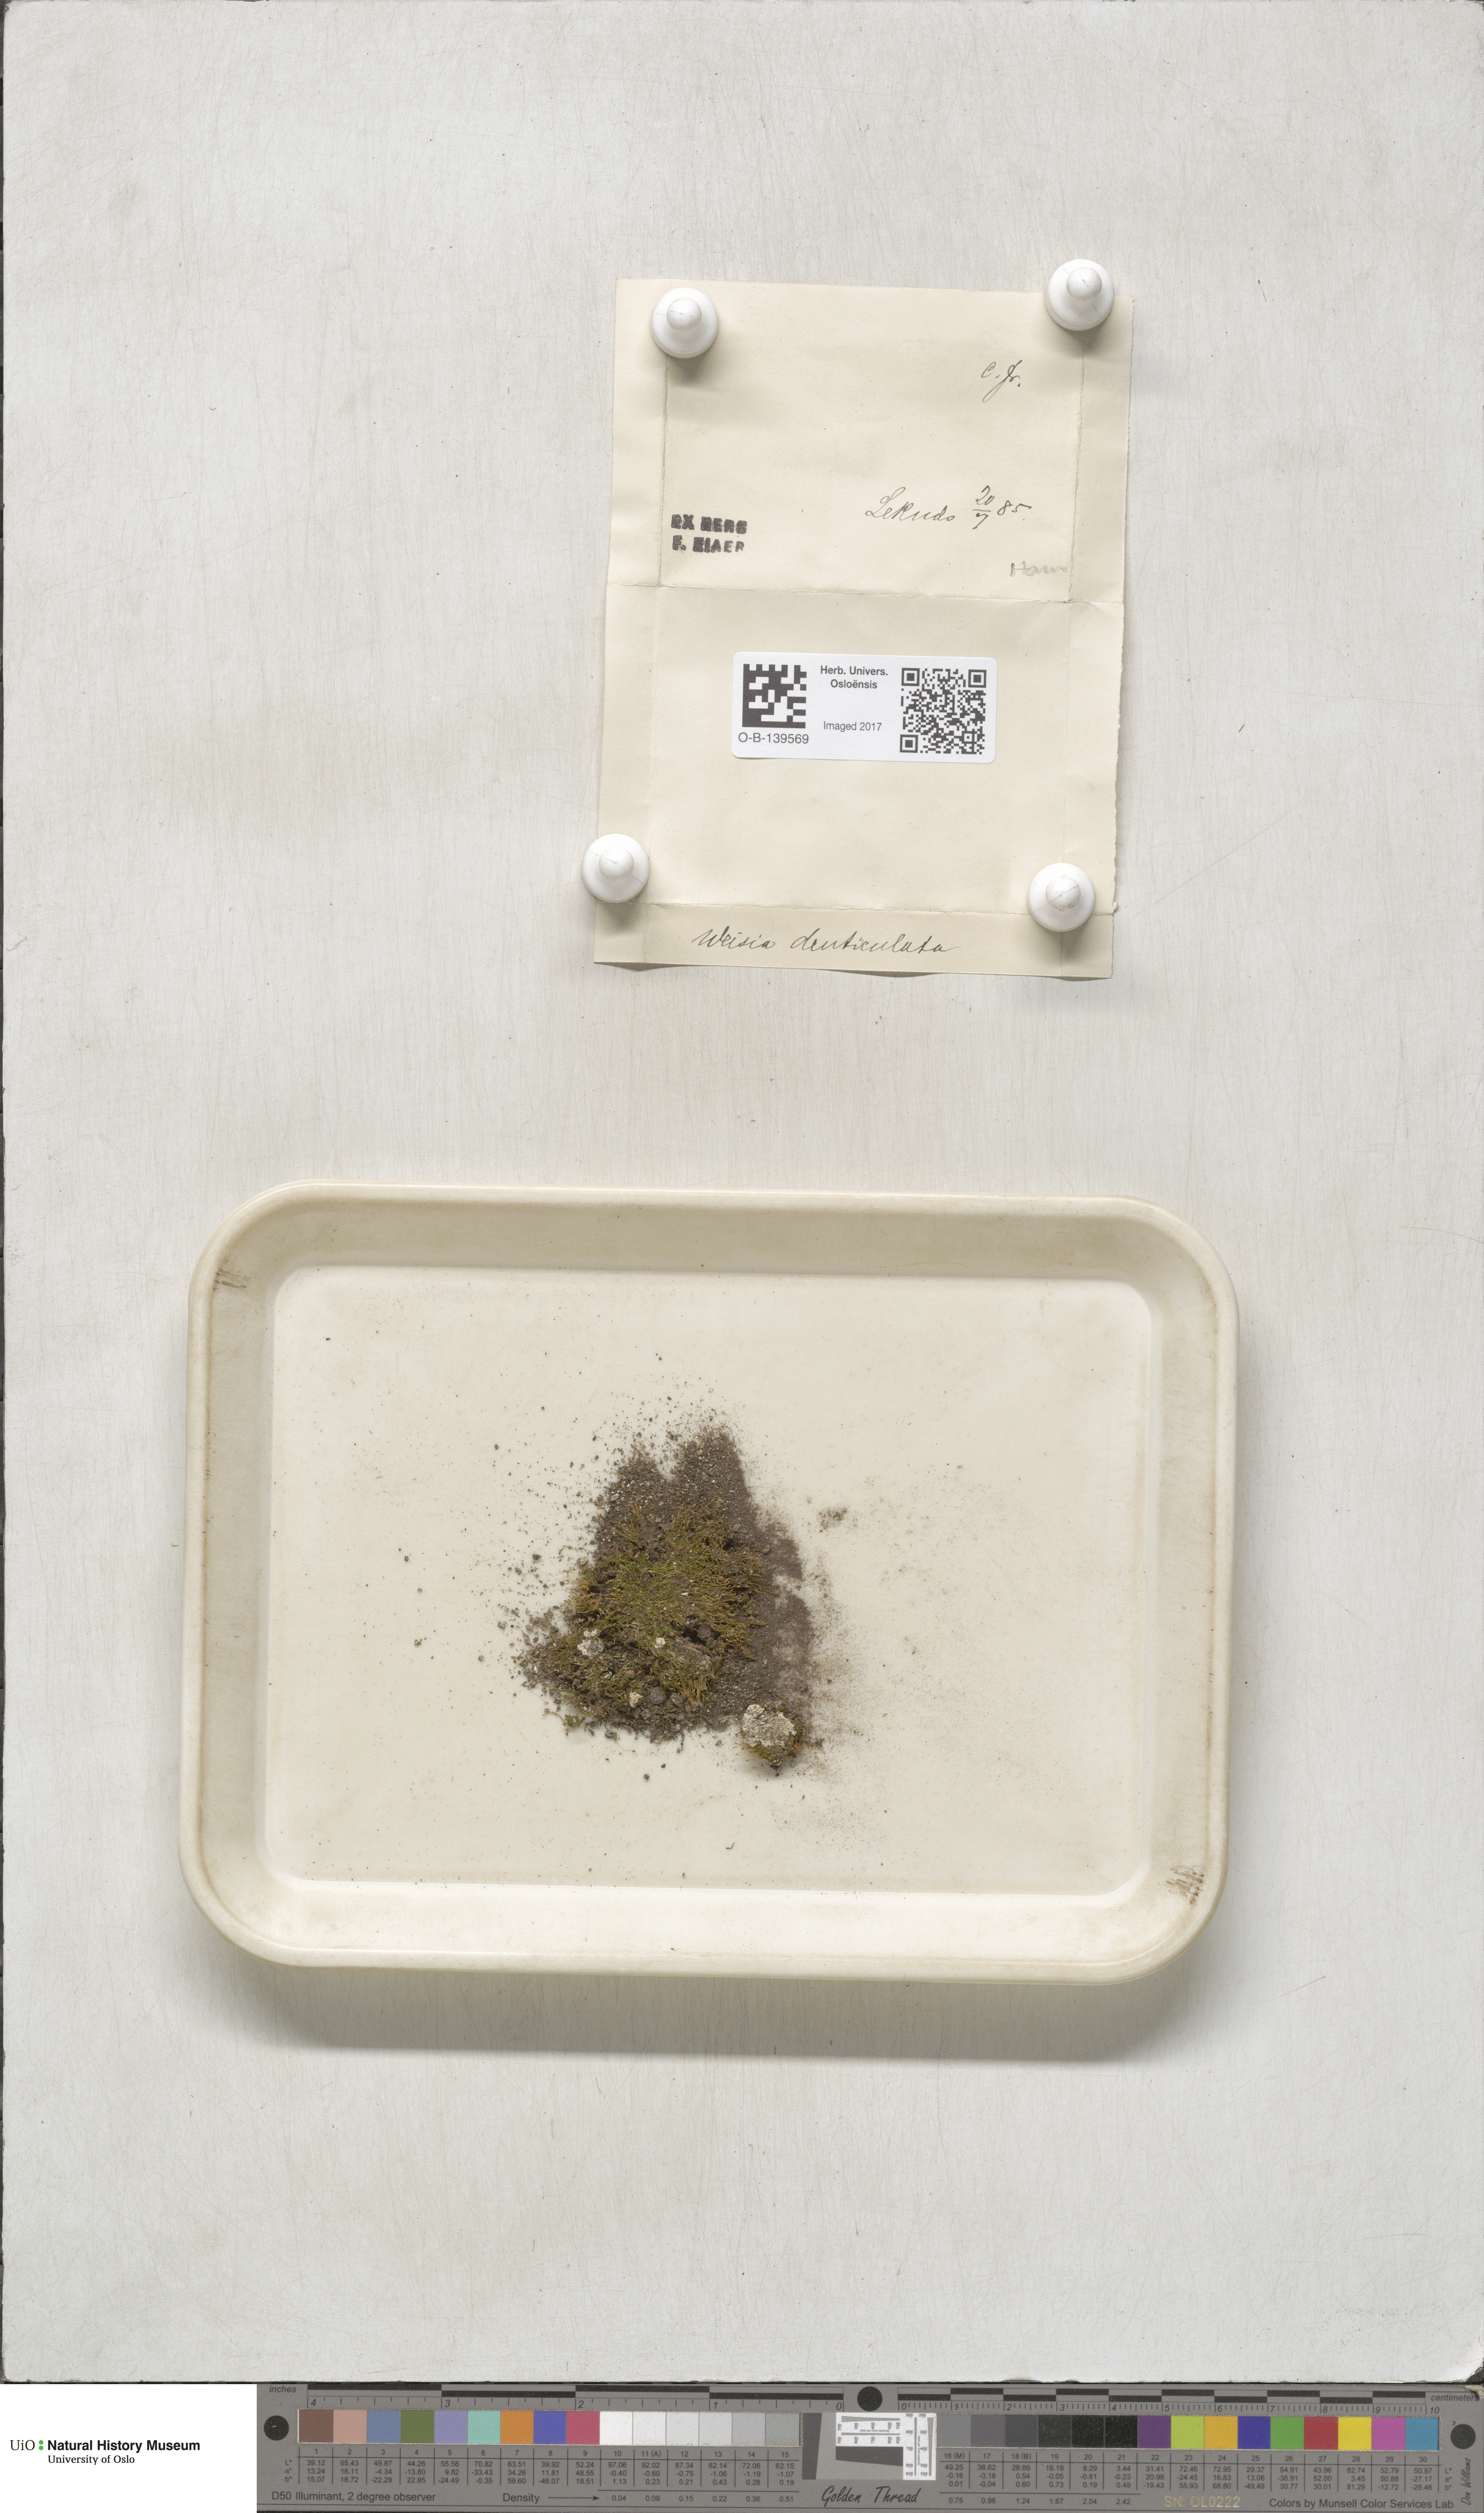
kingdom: Plantae
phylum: Bryophyta
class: Bryopsida
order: Dicranales
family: Rhabdoweisiaceae
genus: Rhabdoweisia
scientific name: Rhabdoweisia crispata
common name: Fine-toothed streak moss
